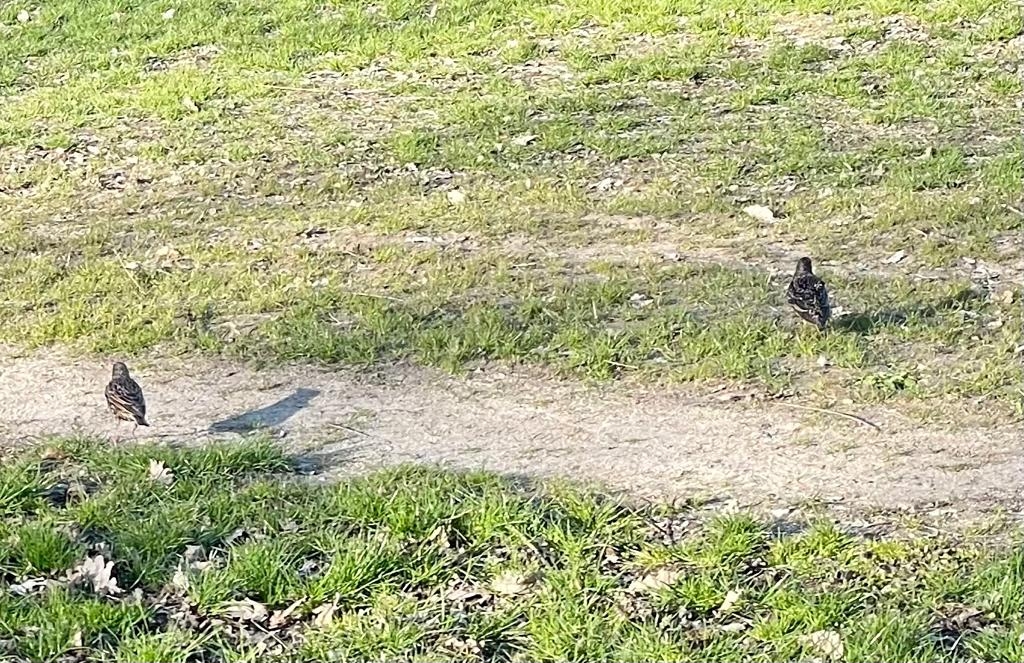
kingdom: Animalia
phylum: Chordata
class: Aves
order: Passeriformes
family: Sturnidae
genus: Sturnus
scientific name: Sturnus vulgaris
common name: Stær
